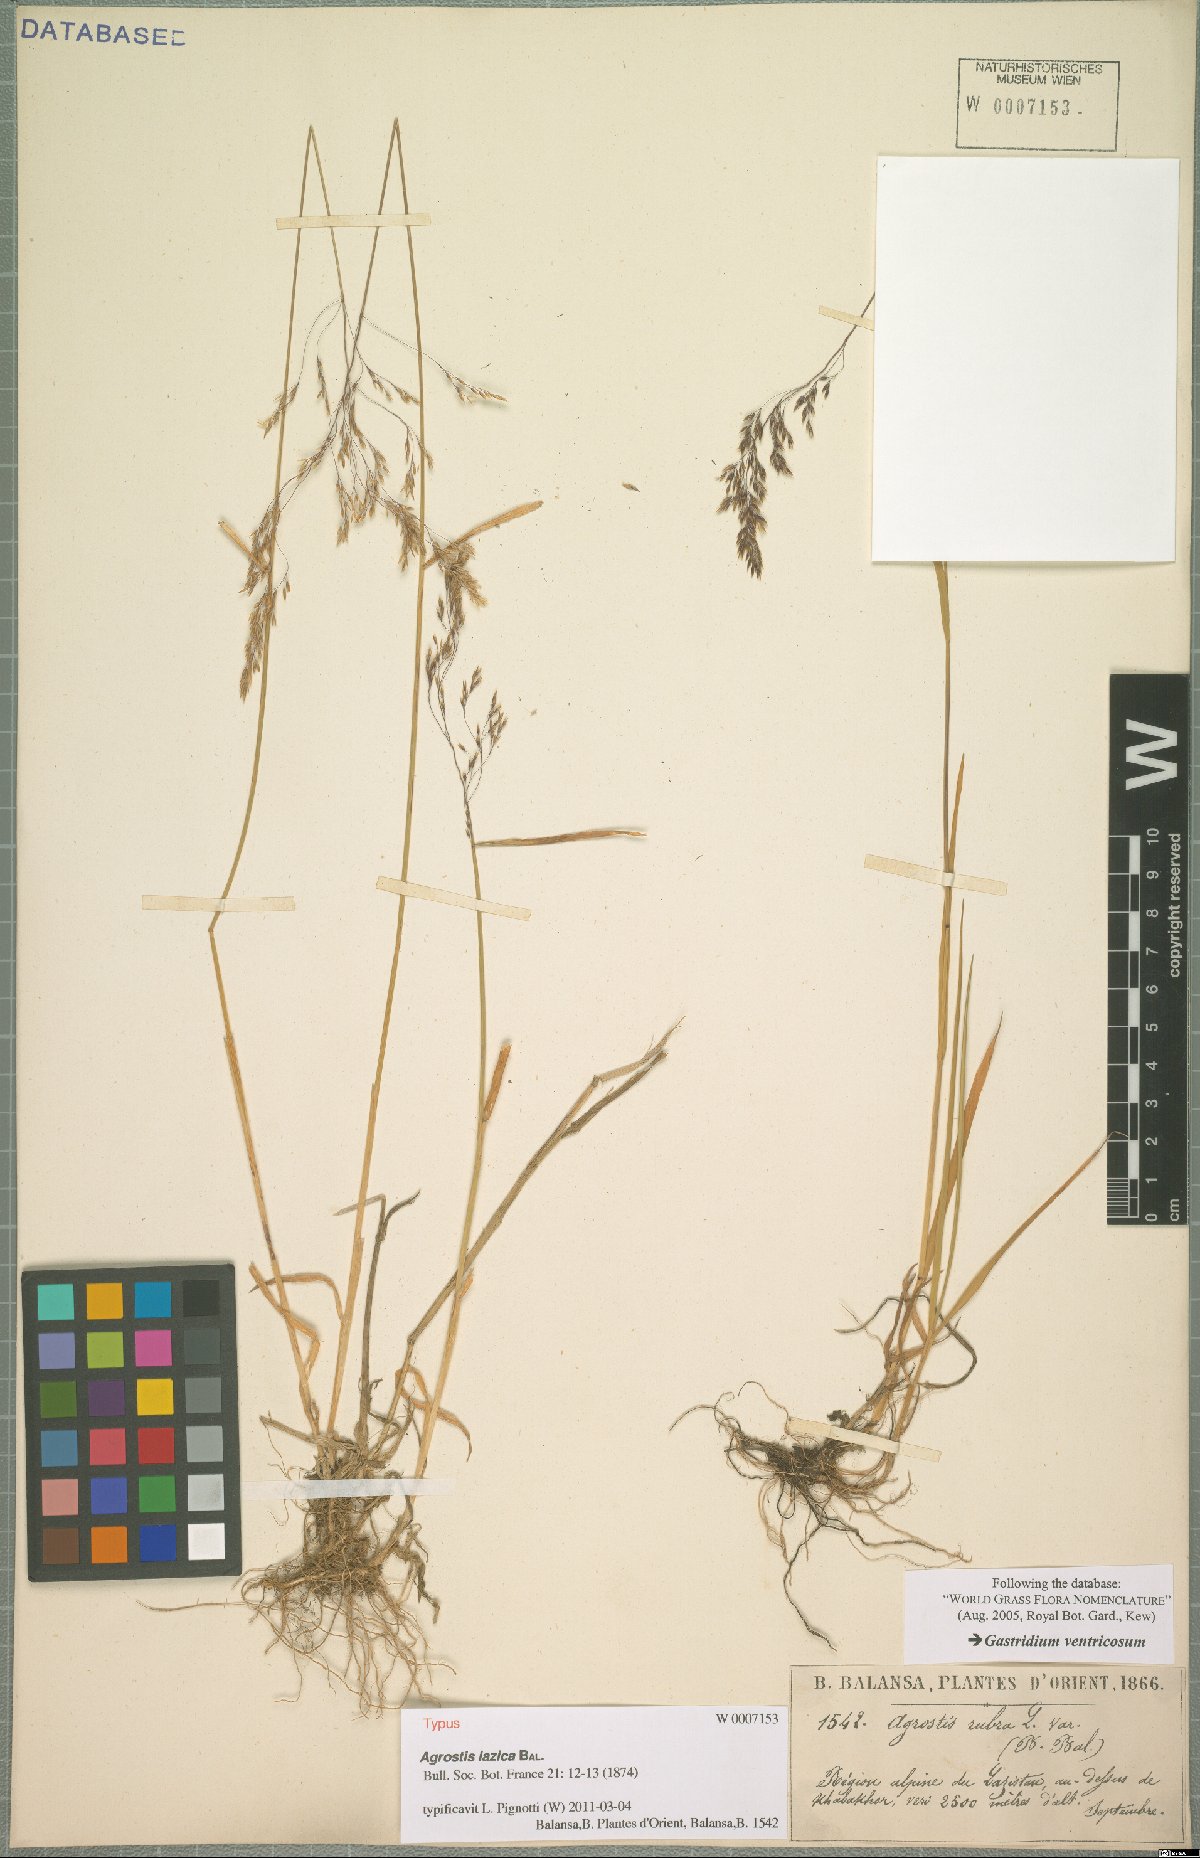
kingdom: Plantae
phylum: Tracheophyta
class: Liliopsida
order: Poales
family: Poaceae
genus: Agrostis
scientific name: Agrostis balansae
